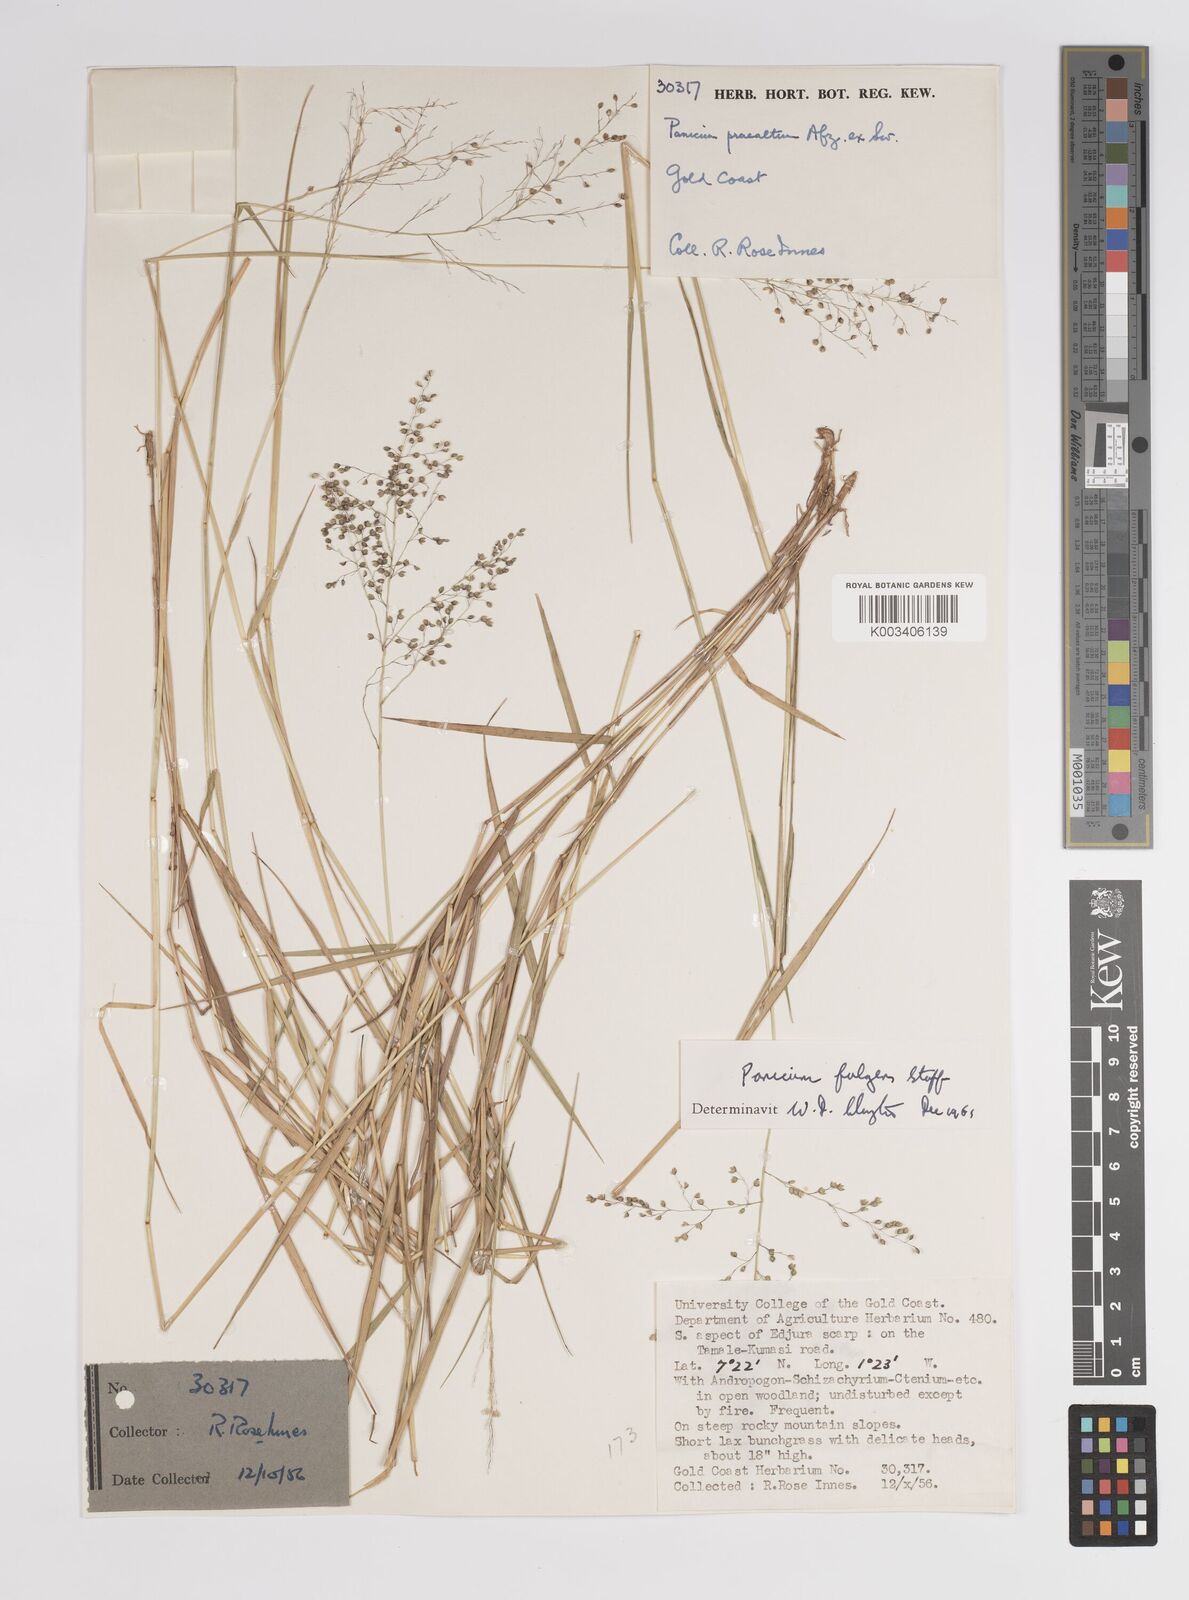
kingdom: Plantae
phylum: Tracheophyta
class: Liliopsida
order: Poales
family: Poaceae
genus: Trichanthecium
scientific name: Trichanthecium nervatum
